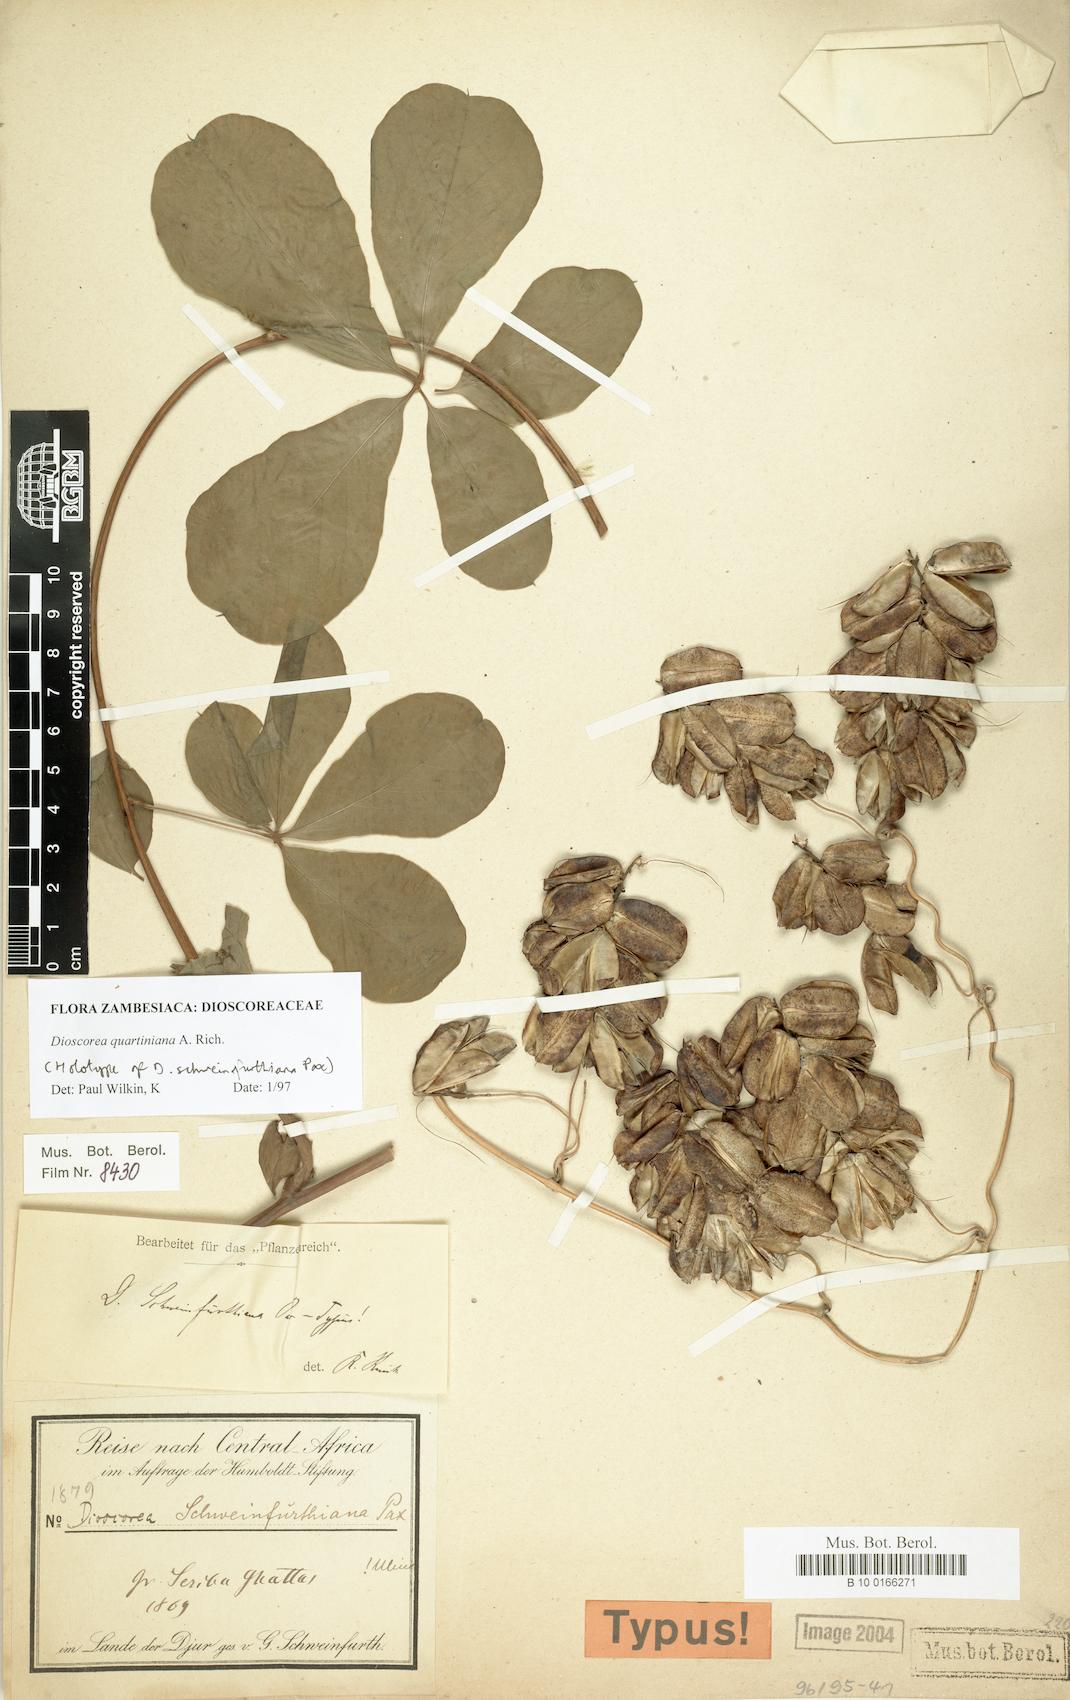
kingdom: Plantae
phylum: Tracheophyta
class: Liliopsida
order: Dioscoreales
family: Dioscoreaceae
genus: Dioscorea
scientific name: Dioscorea quartiniana
